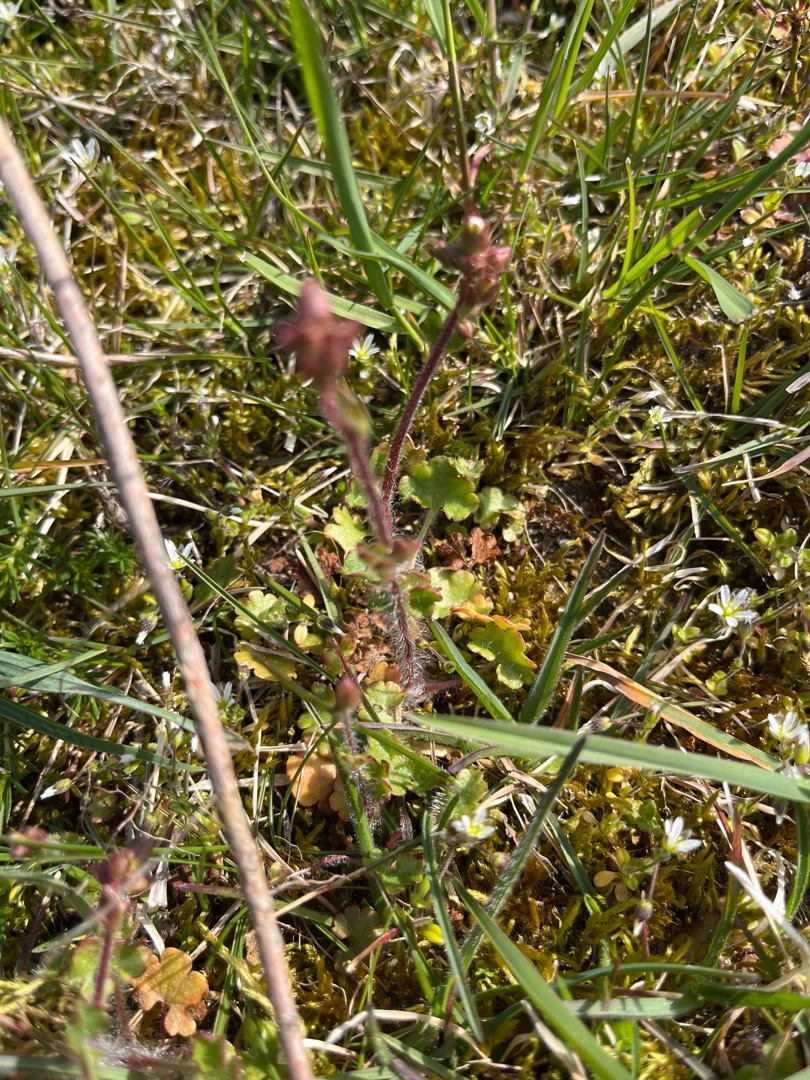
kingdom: Plantae
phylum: Tracheophyta
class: Magnoliopsida
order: Saxifragales
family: Saxifragaceae
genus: Saxifraga
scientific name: Saxifraga granulata
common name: Kornet stenbræk
